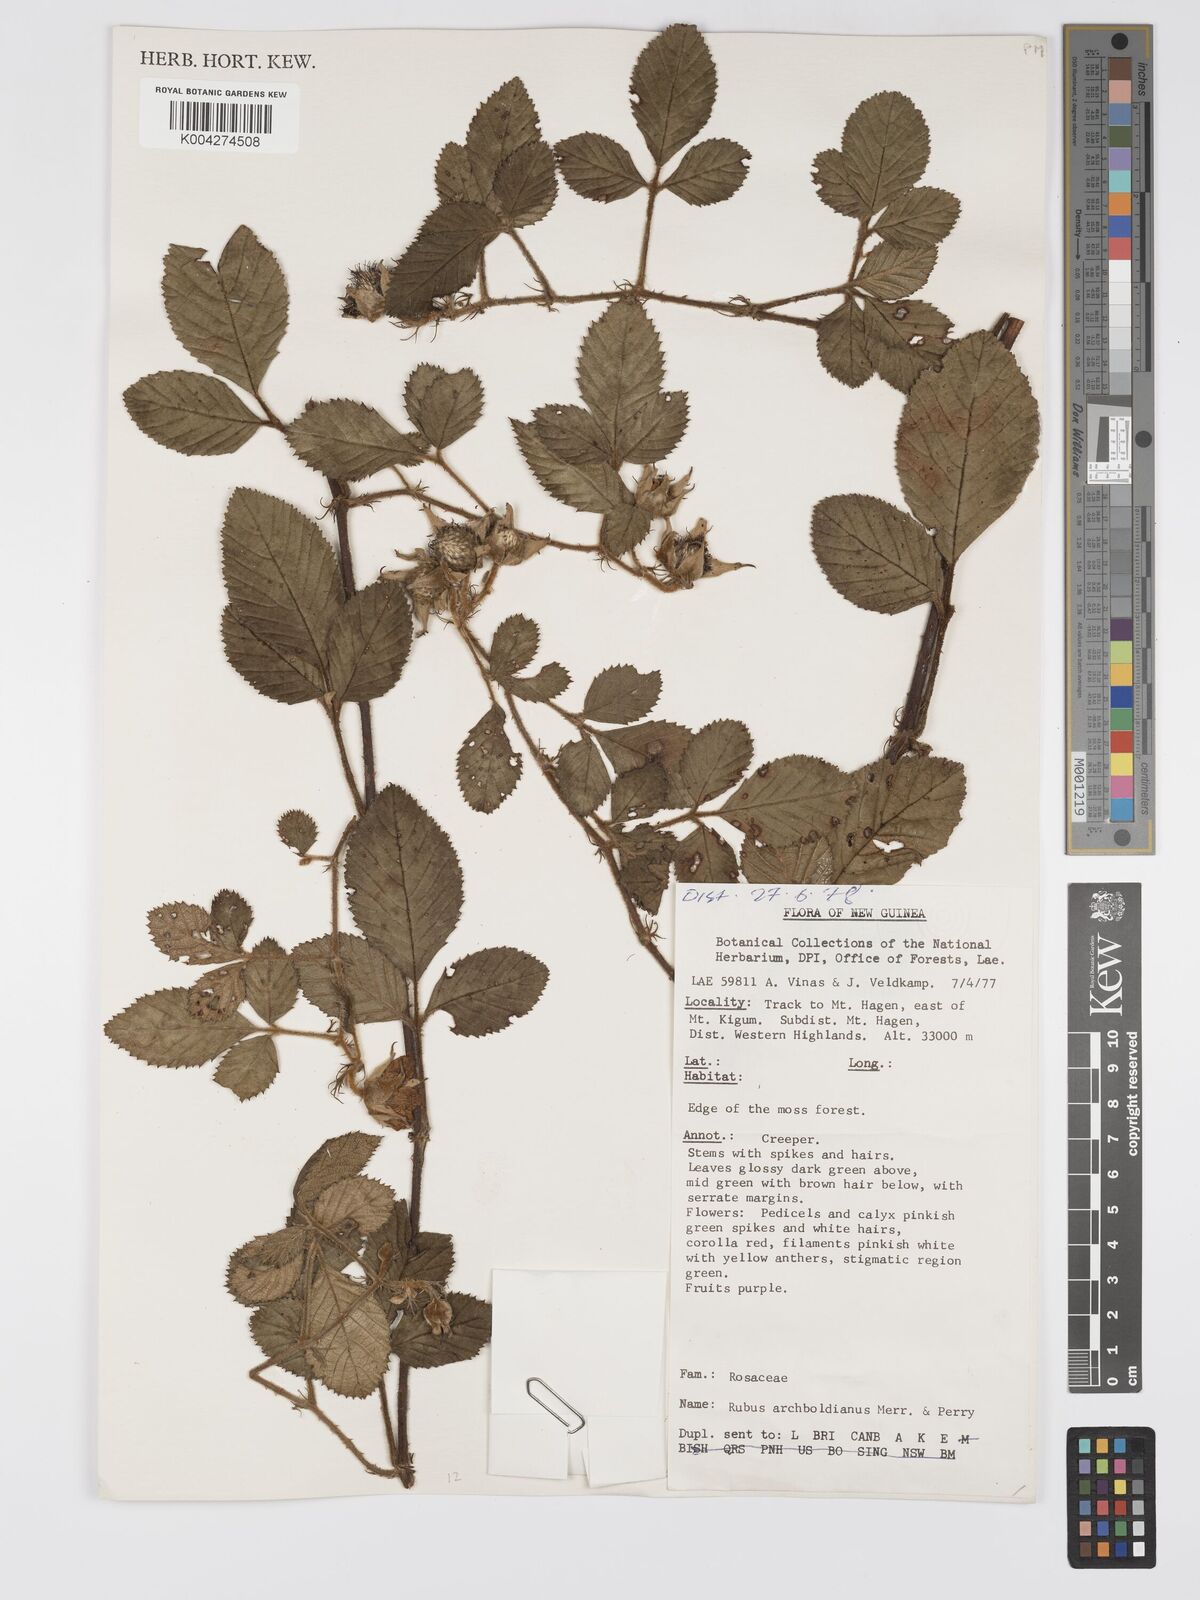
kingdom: Plantae
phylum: Tracheophyta
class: Magnoliopsida
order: Rosales
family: Rosaceae
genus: Rubus
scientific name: Rubus archboldianus
